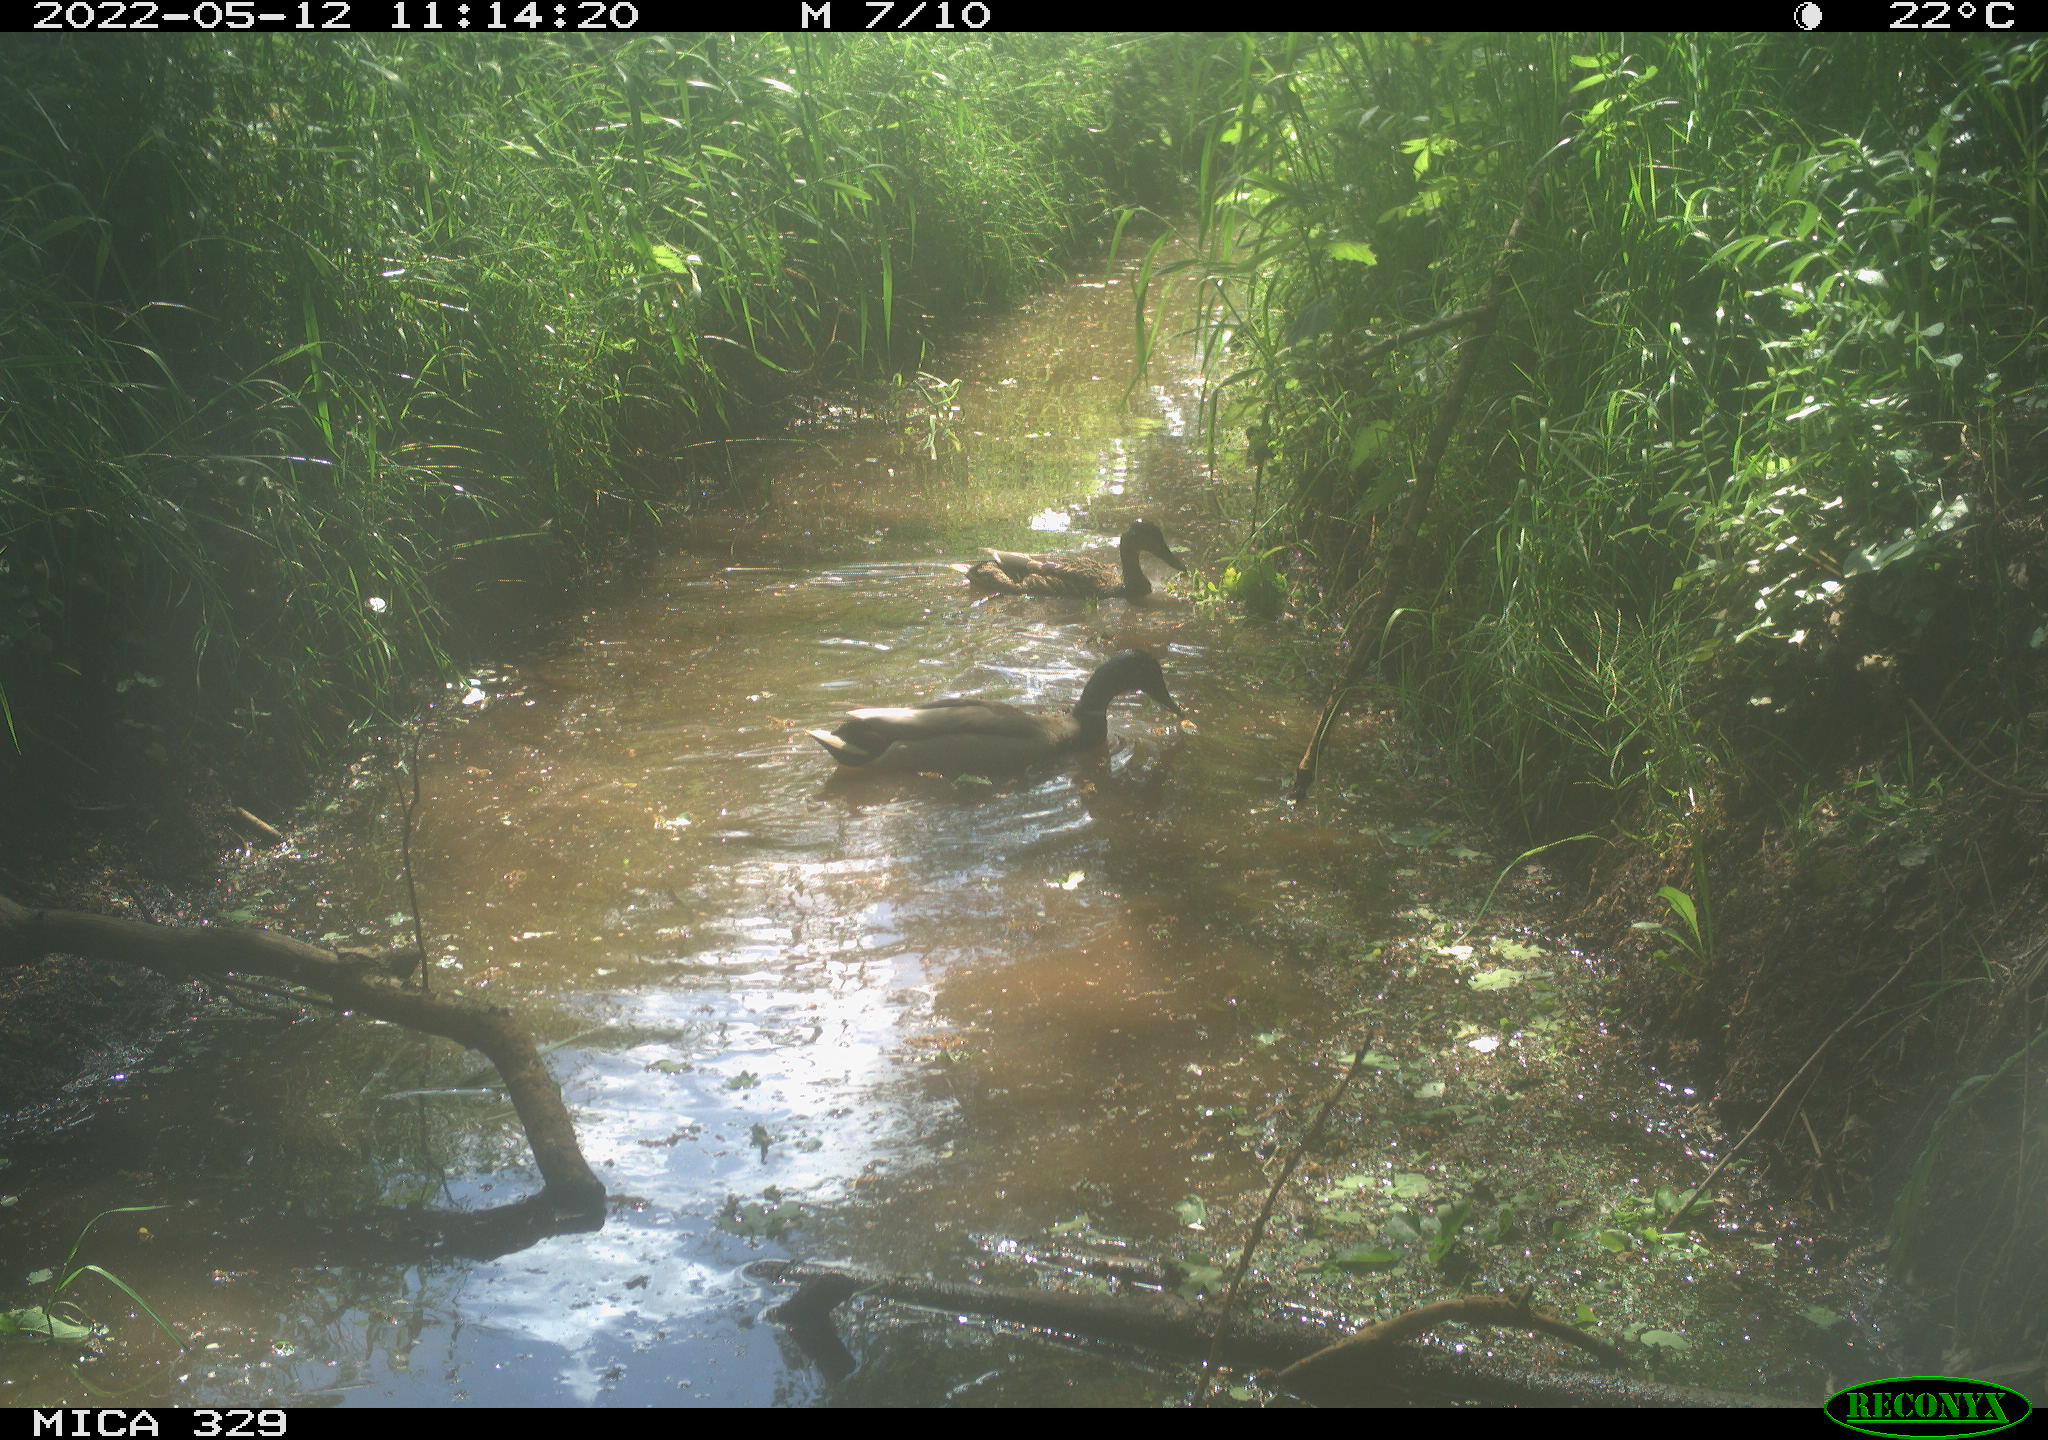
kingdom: Animalia
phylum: Chordata
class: Aves
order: Anseriformes
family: Anatidae
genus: Anas
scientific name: Anas platyrhynchos
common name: Mallard
